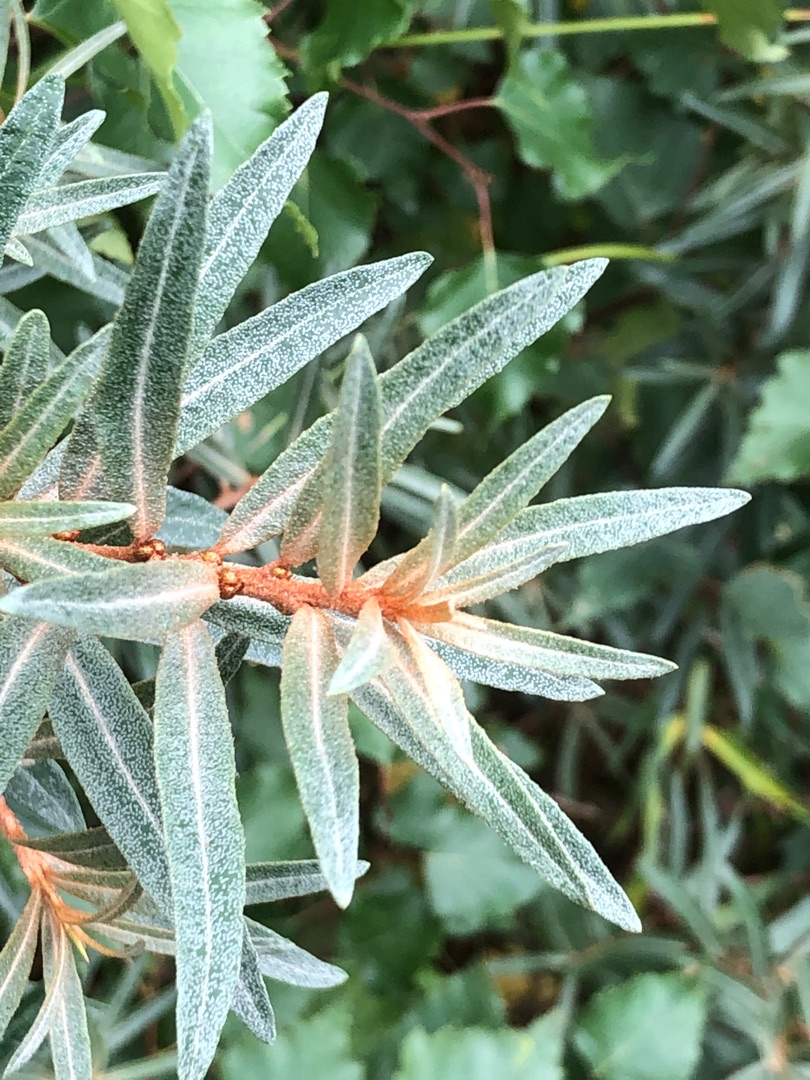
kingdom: Plantae
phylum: Tracheophyta
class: Magnoliopsida
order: Rosales
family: Elaeagnaceae
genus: Hippophae
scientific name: Hippophae rhamnoides
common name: Havtorn
